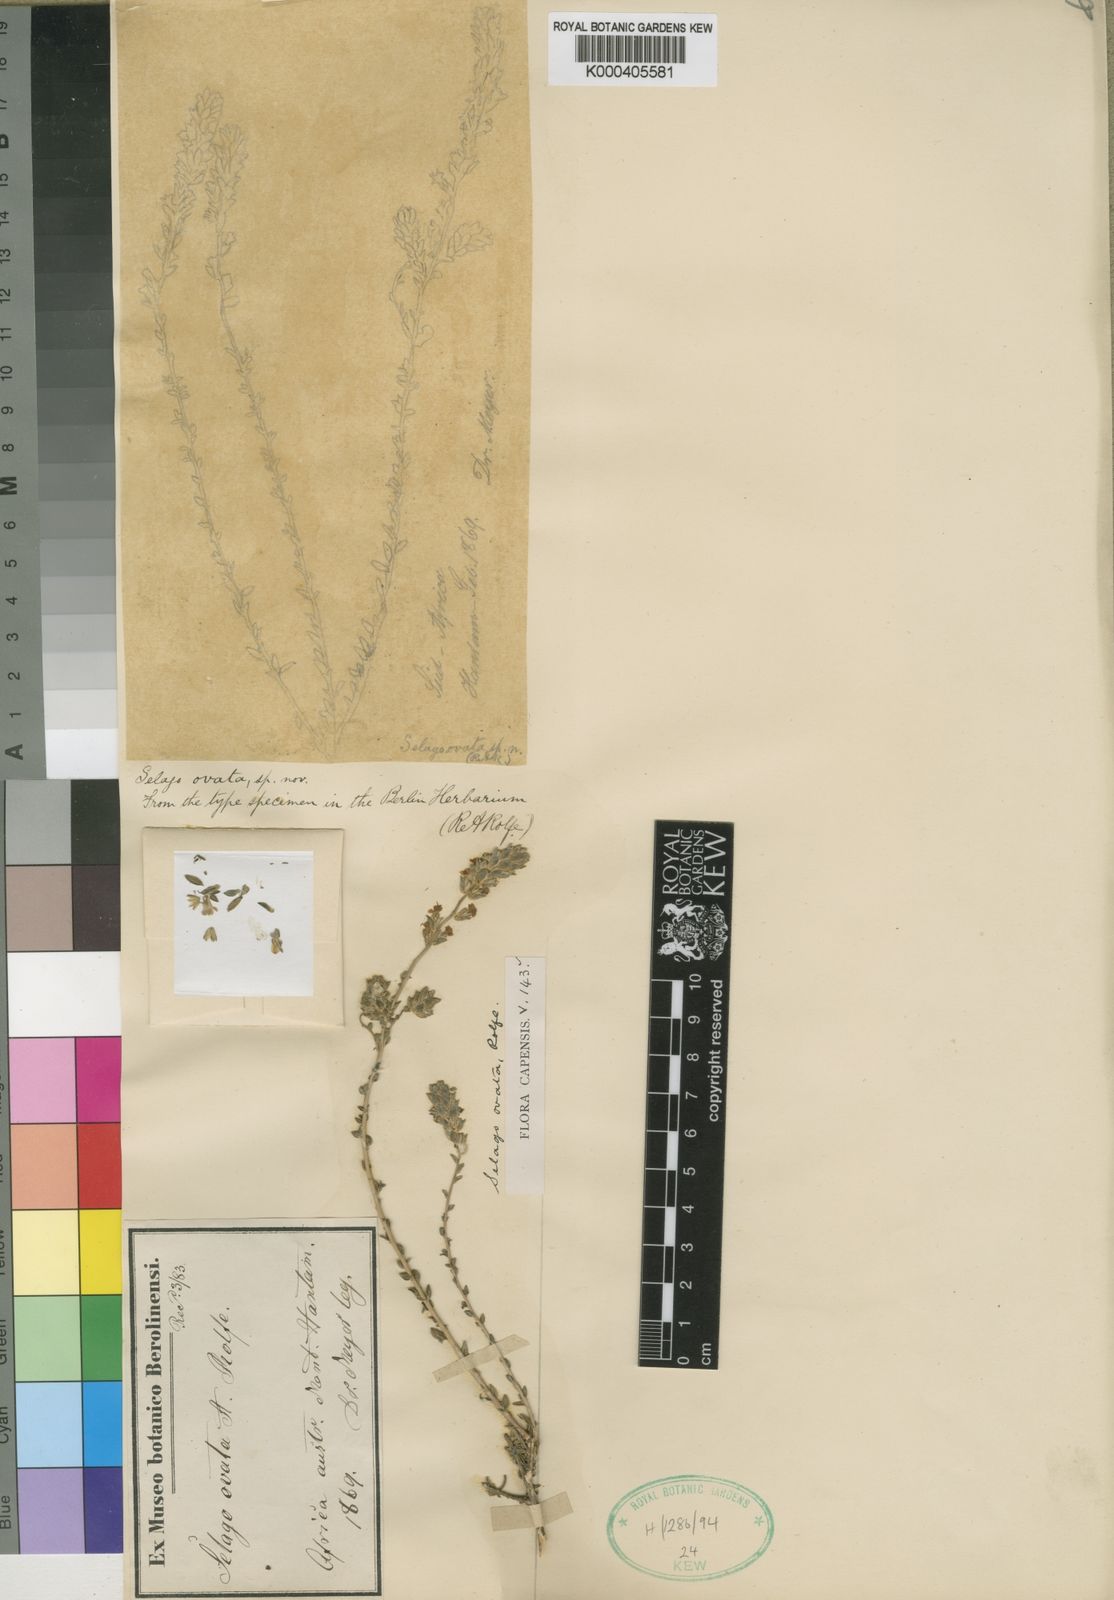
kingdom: Plantae
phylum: Tracheophyta
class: Magnoliopsida
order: Lamiales
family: Scrophulariaceae
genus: Selago
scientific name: Selago pinguicula
